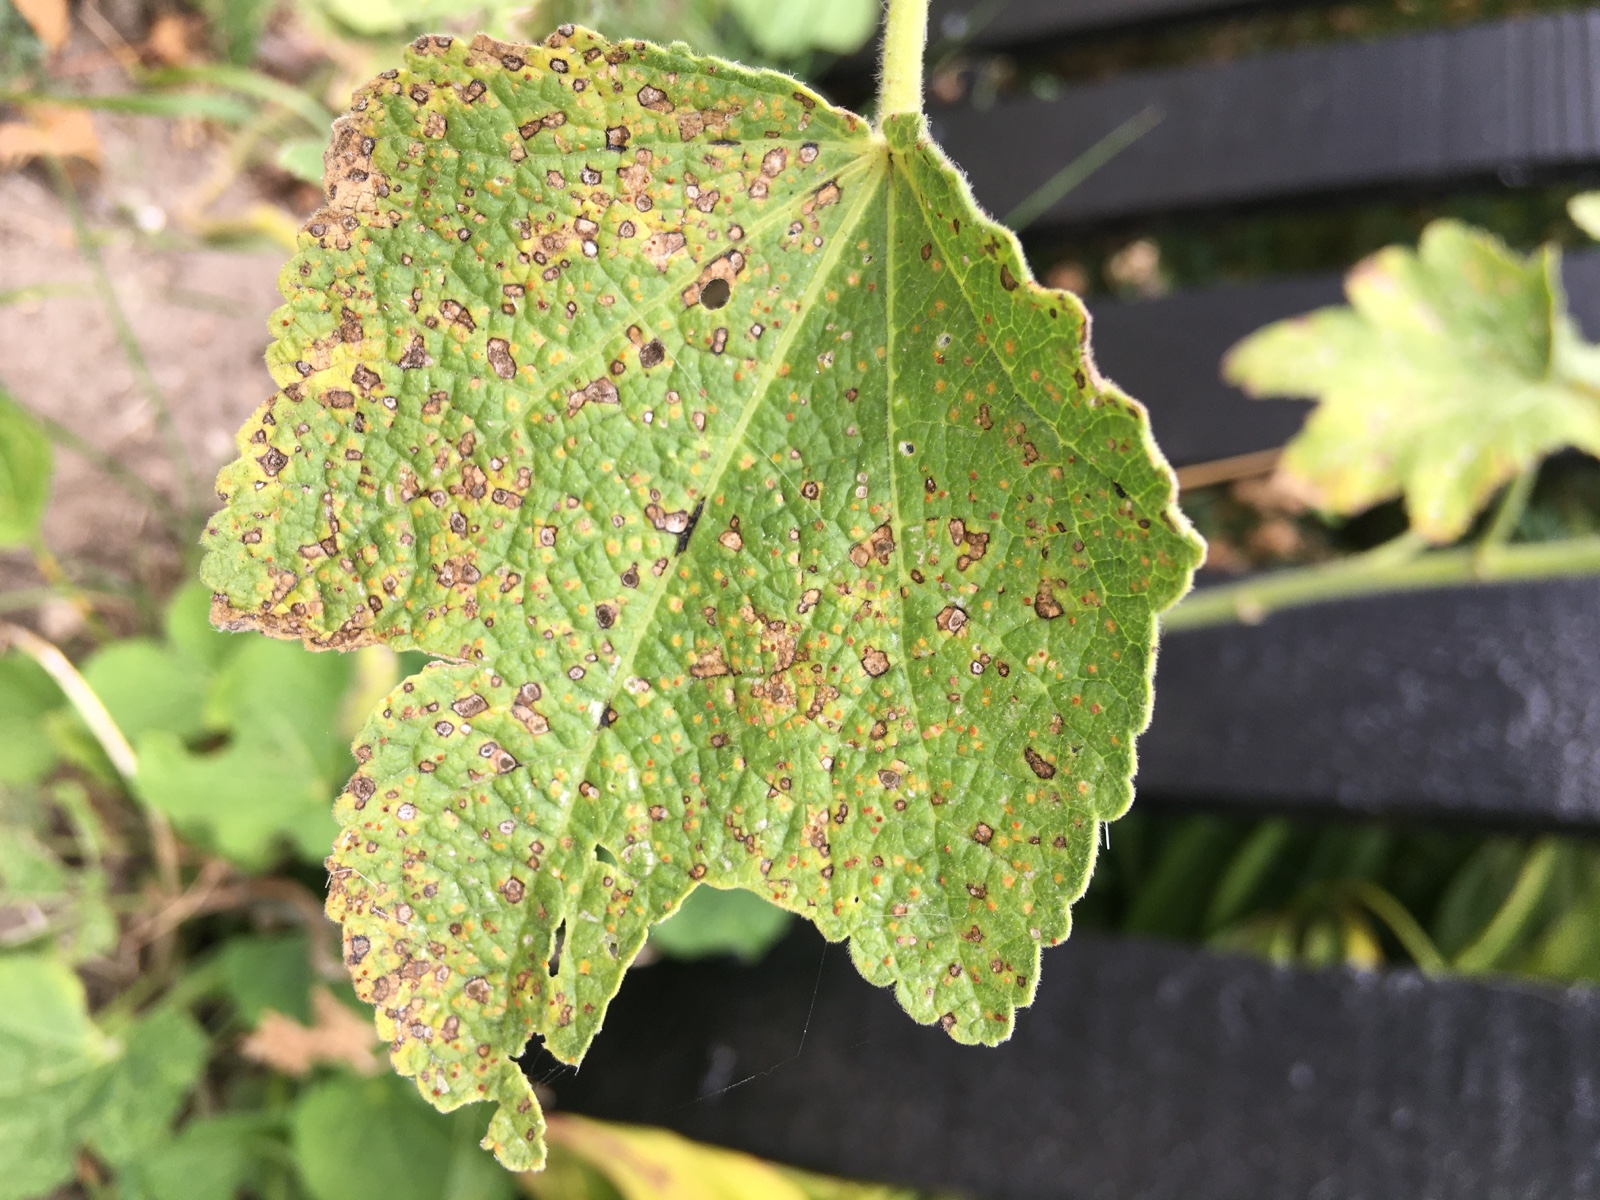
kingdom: Fungi
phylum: Basidiomycota
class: Pucciniomycetes
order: Pucciniales
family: Pucciniaceae
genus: Puccinia
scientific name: Puccinia malvacearum
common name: stokrose-tvecellerust
